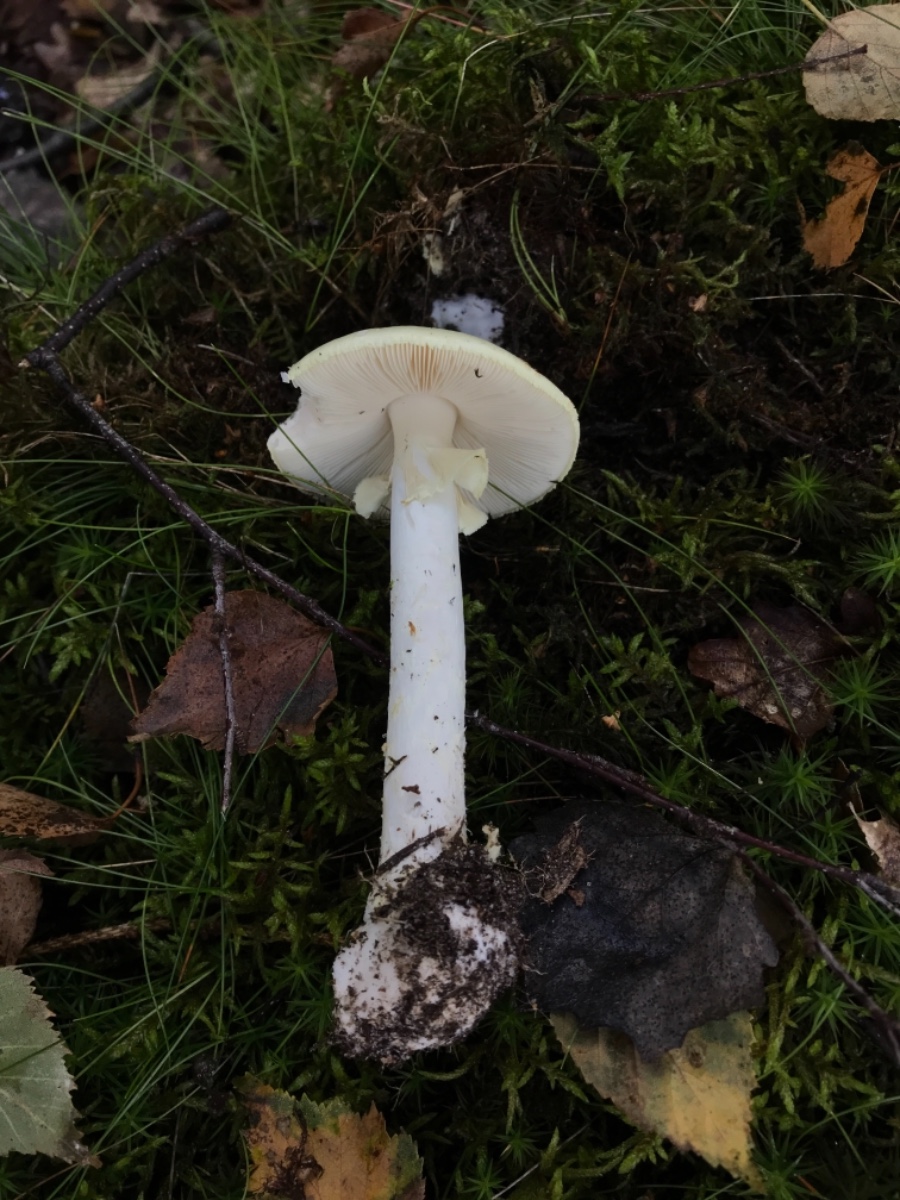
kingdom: Fungi
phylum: Basidiomycota
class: Agaricomycetes
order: Agaricales
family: Amanitaceae
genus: Amanita
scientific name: Amanita citrina
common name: kugleknoldet fluesvamp
